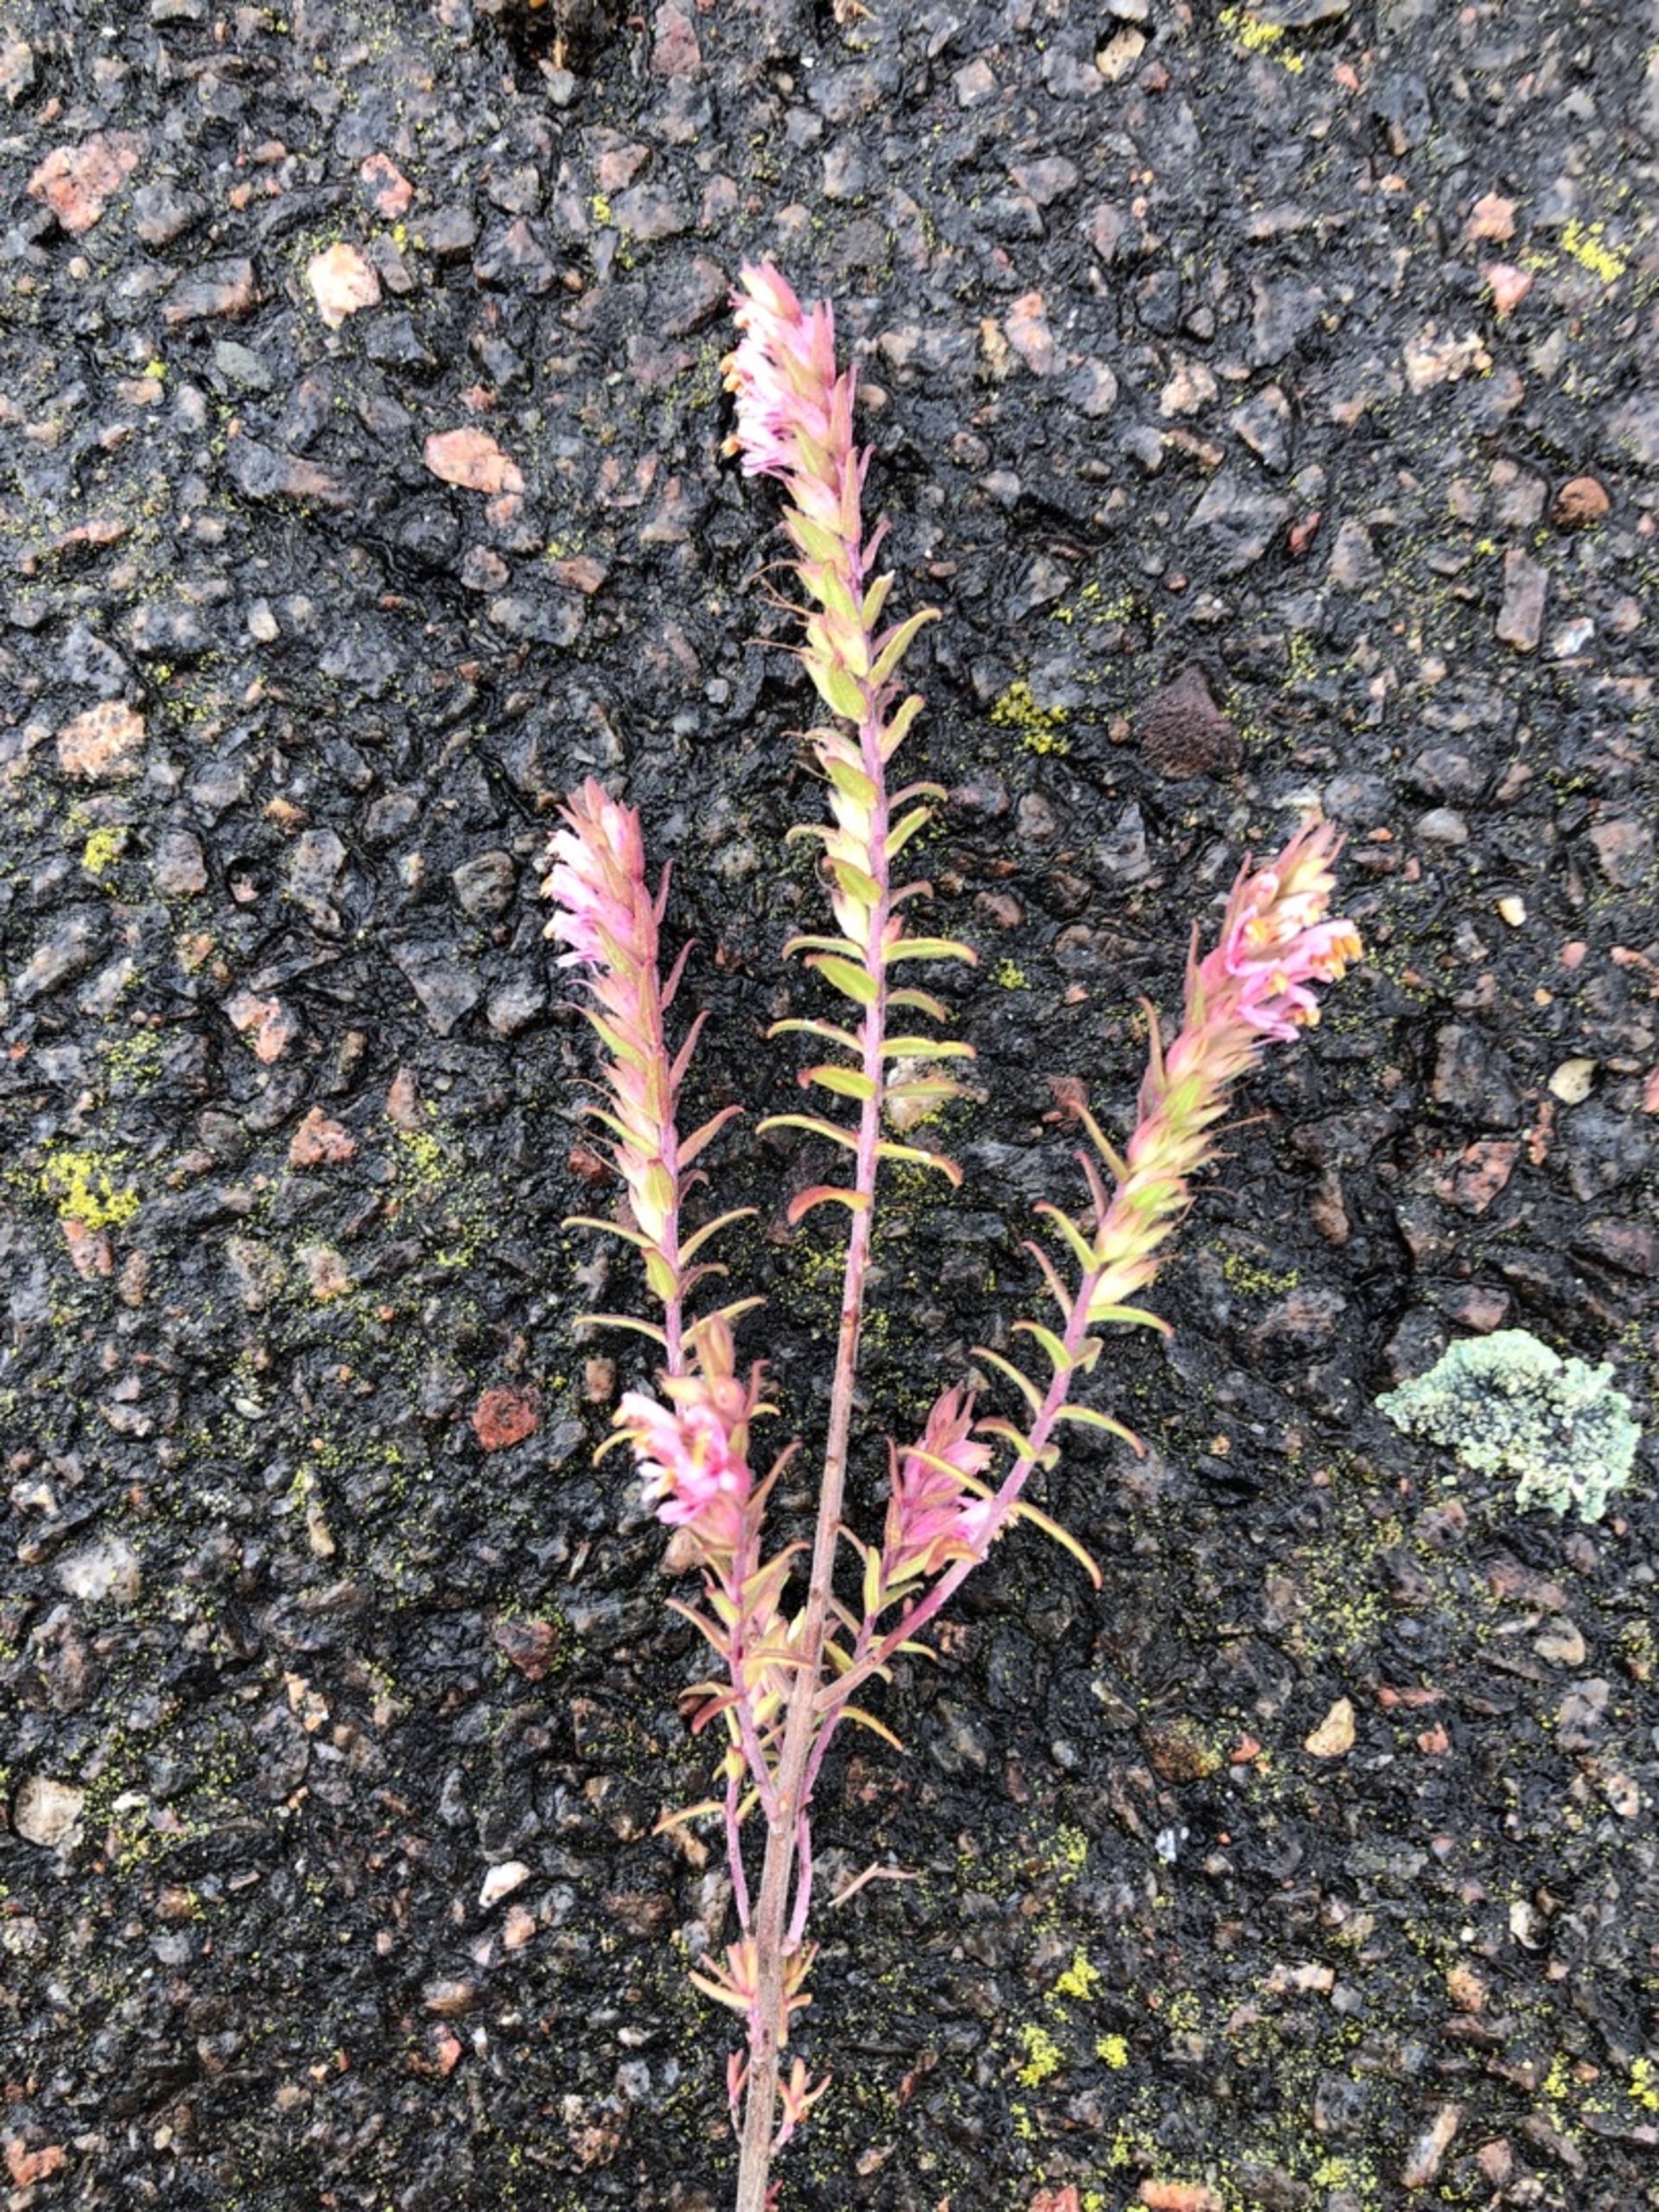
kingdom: Plantae
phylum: Tracheophyta
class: Magnoliopsida
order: Lamiales
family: Orobanchaceae
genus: Odontites
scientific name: Odontites vernus
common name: Mark-rødtop
